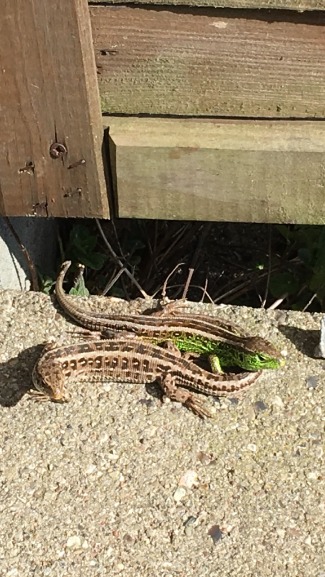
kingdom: Animalia
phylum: Chordata
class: Squamata
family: Lacertidae
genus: Lacerta
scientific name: Lacerta agilis
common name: Markfirben
